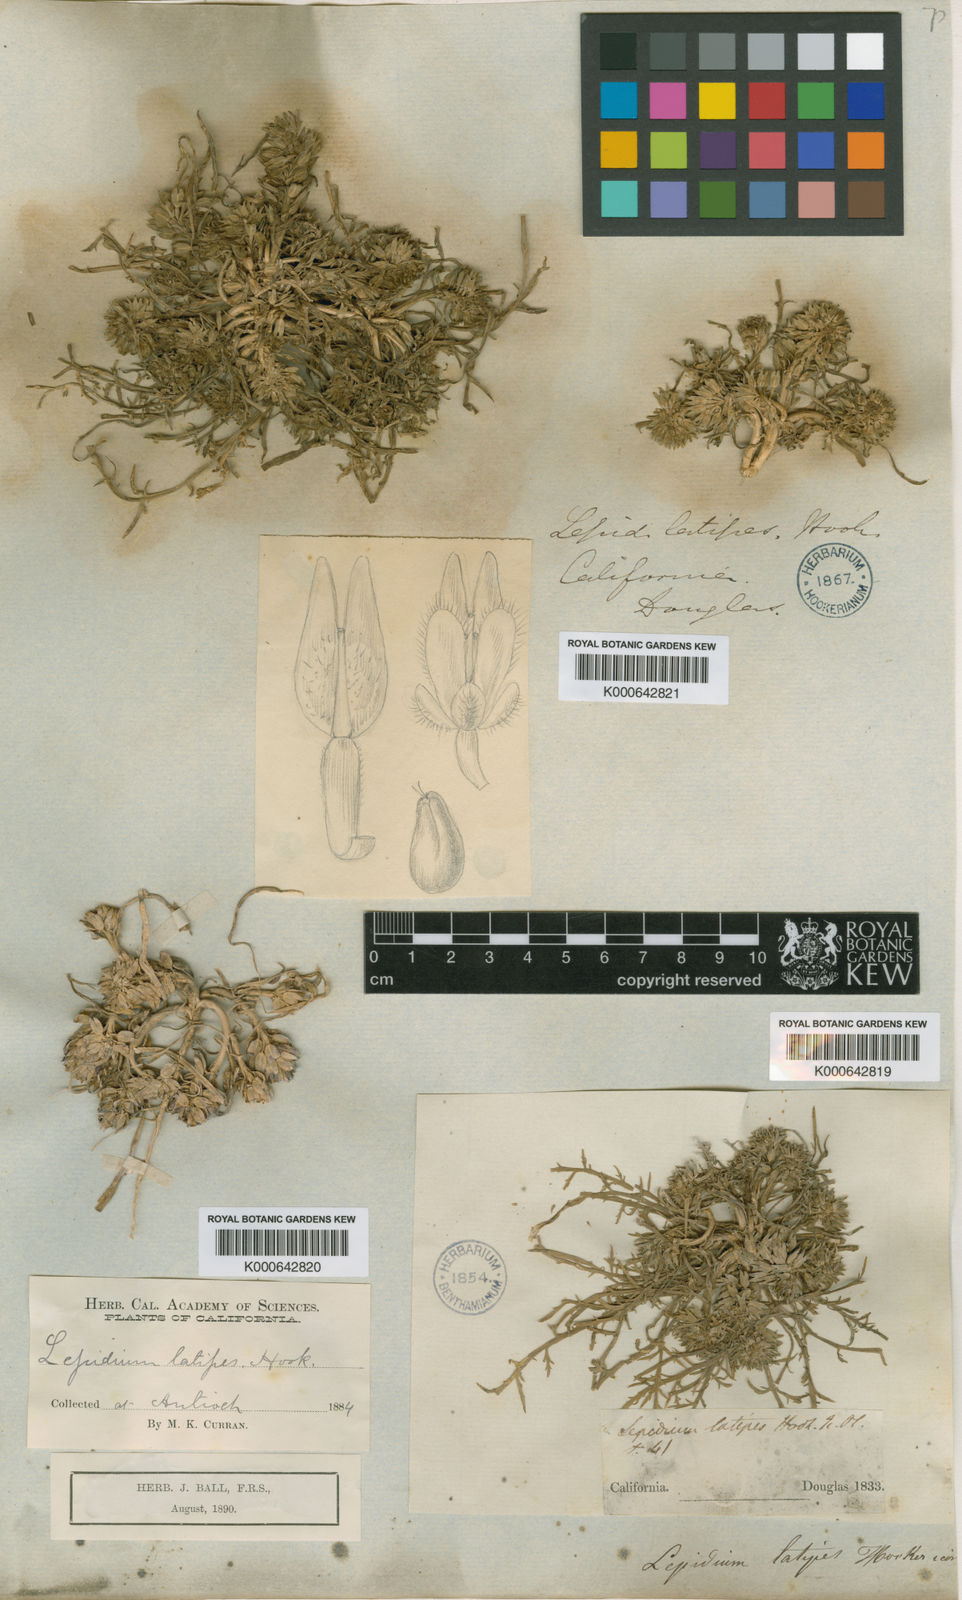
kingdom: Plantae
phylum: Tracheophyta
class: Magnoliopsida
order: Brassicales
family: Brassicaceae
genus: Lepidium
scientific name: Lepidium latipes
